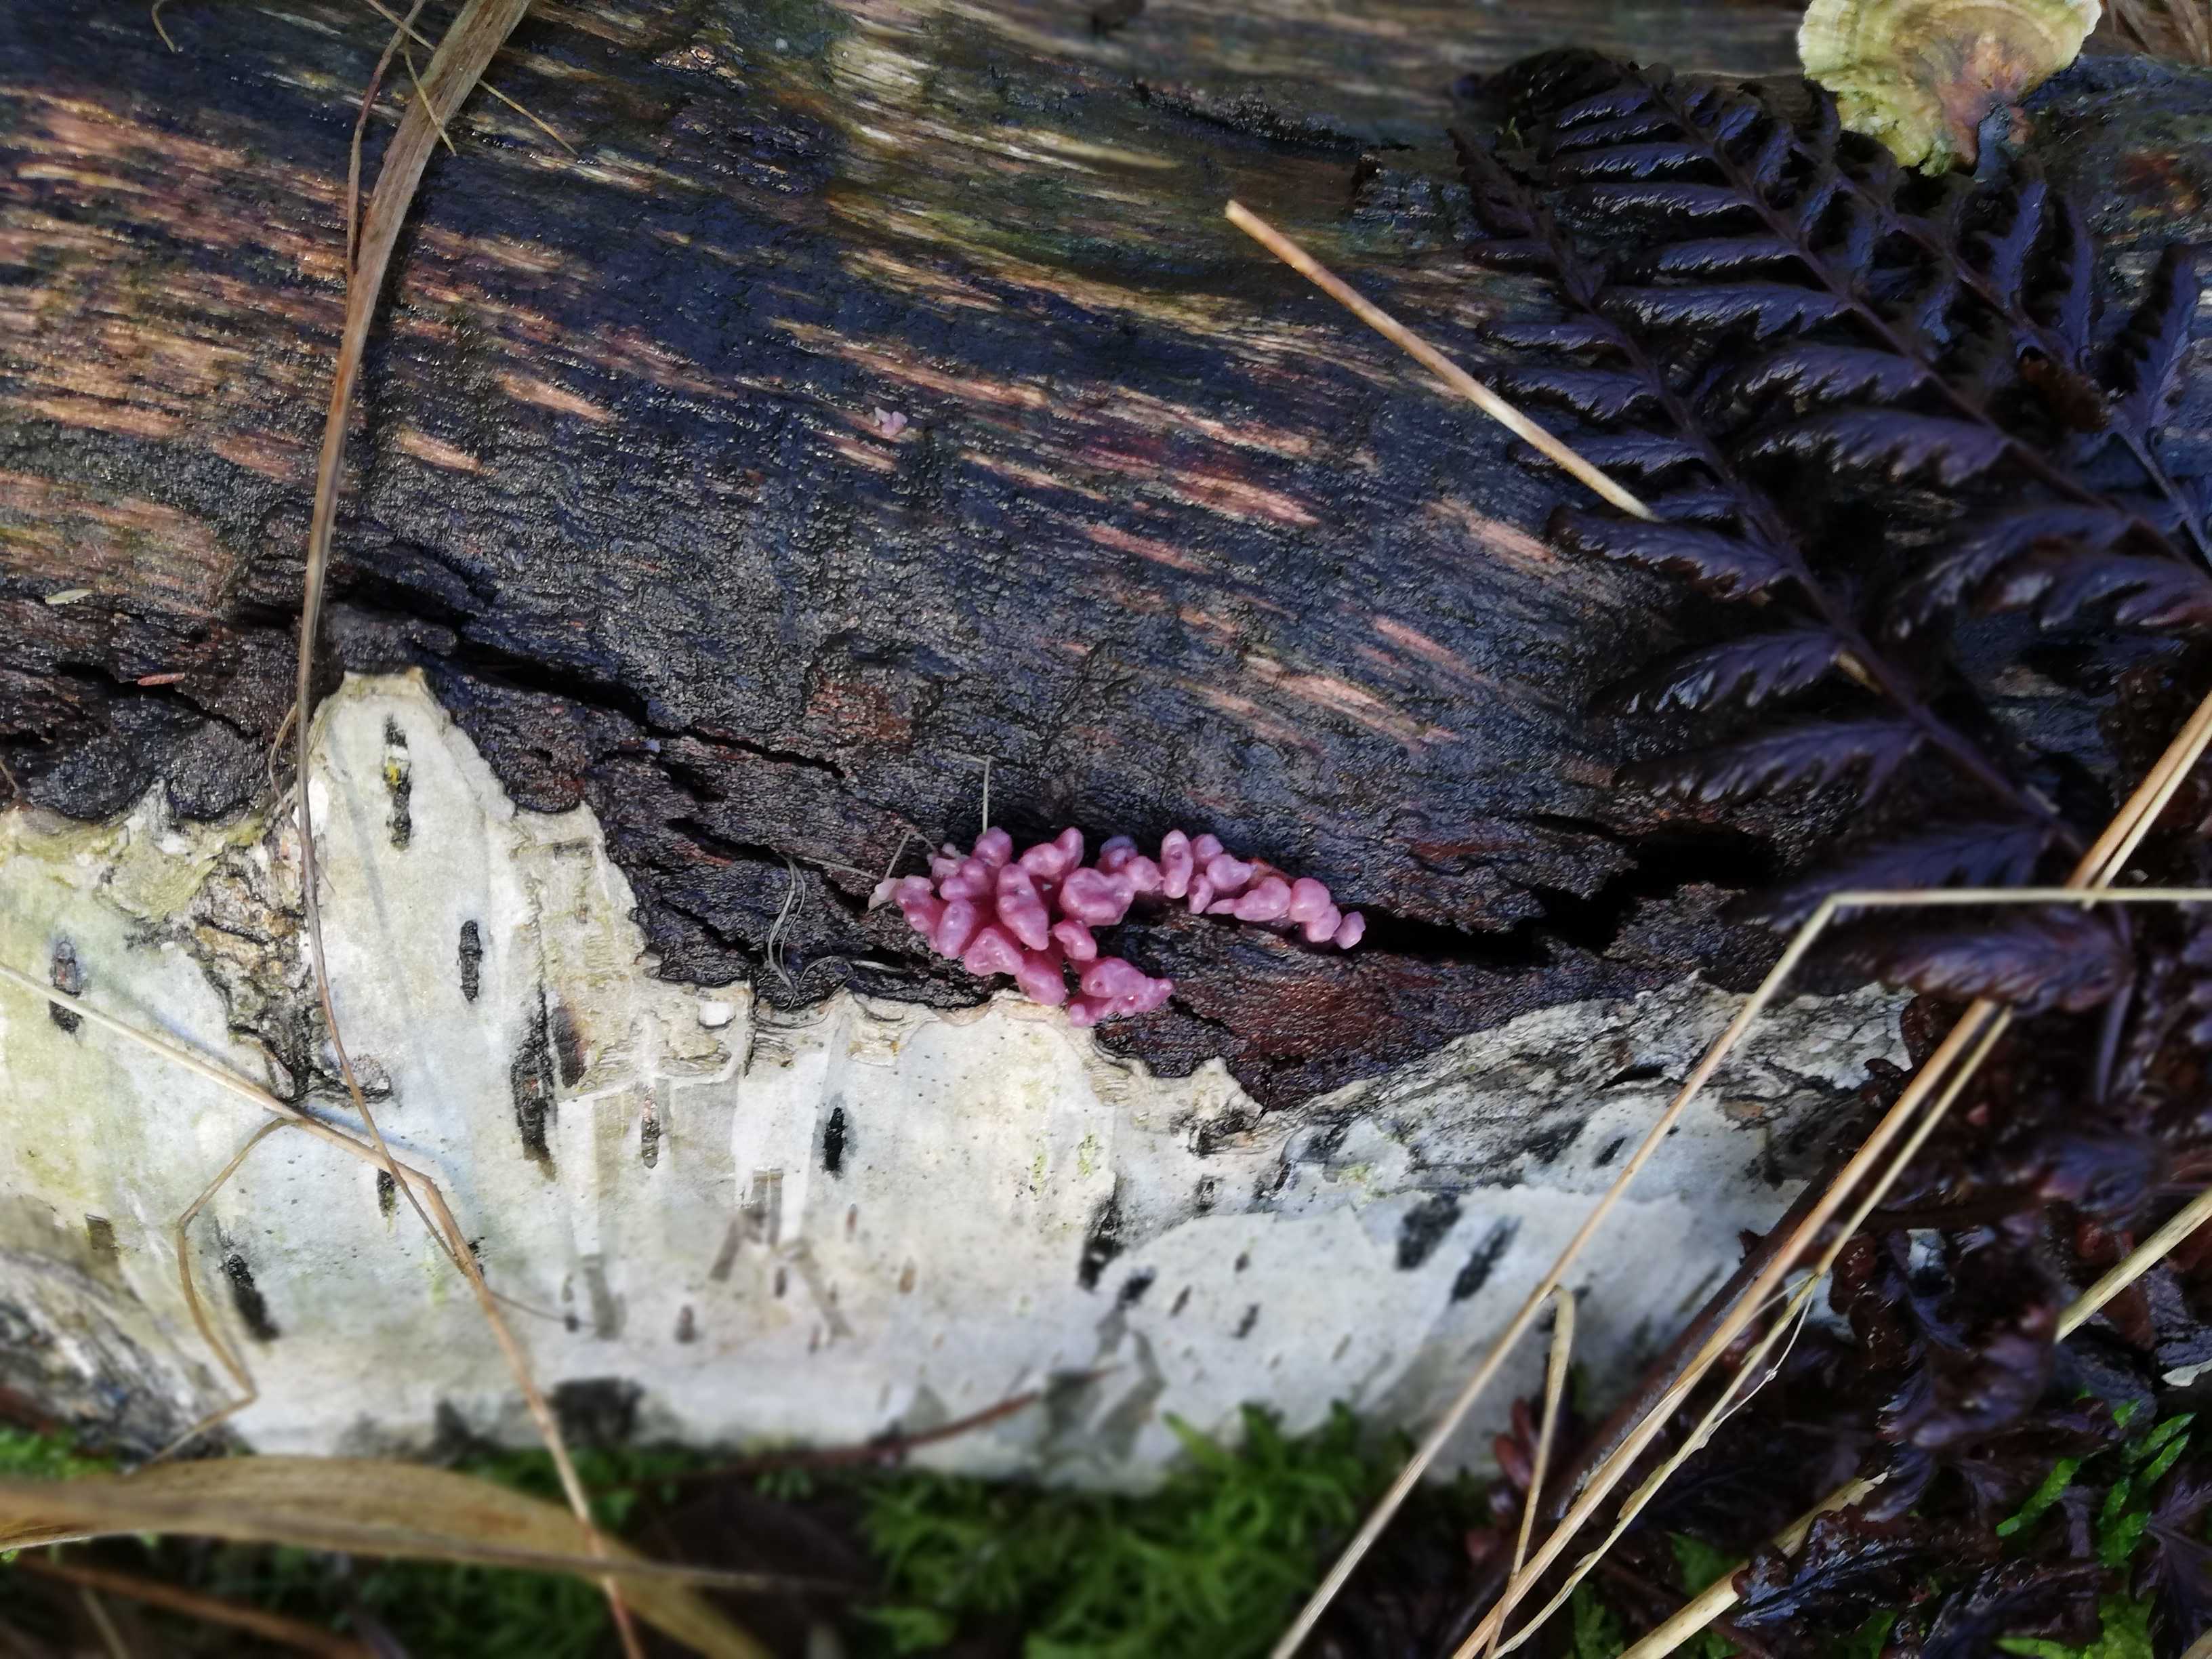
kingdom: Fungi
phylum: Ascomycota
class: Leotiomycetes
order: Helotiales
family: Gelatinodiscaceae
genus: Ascocoryne
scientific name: Ascocoryne sarcoides
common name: rødlilla sejskive
